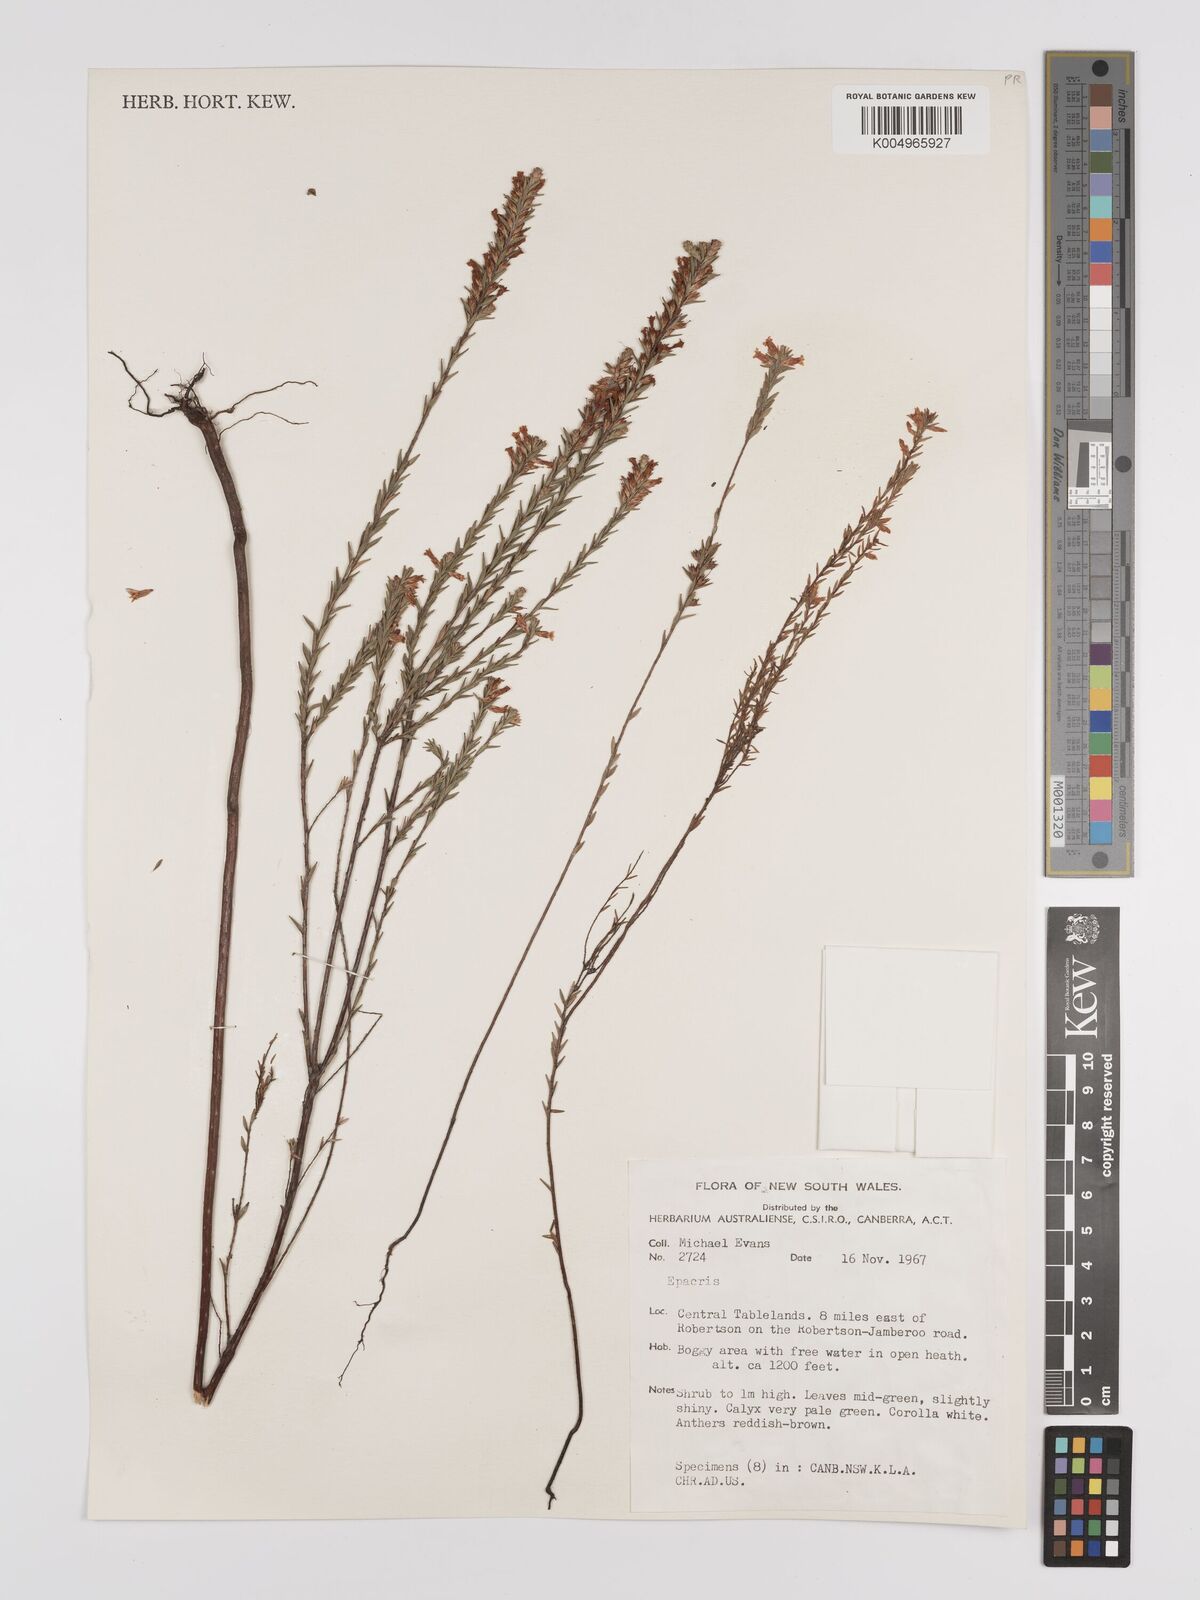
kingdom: Plantae
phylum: Tracheophyta
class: Magnoliopsida
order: Ericales
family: Ericaceae
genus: Epacris
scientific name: Epacris
